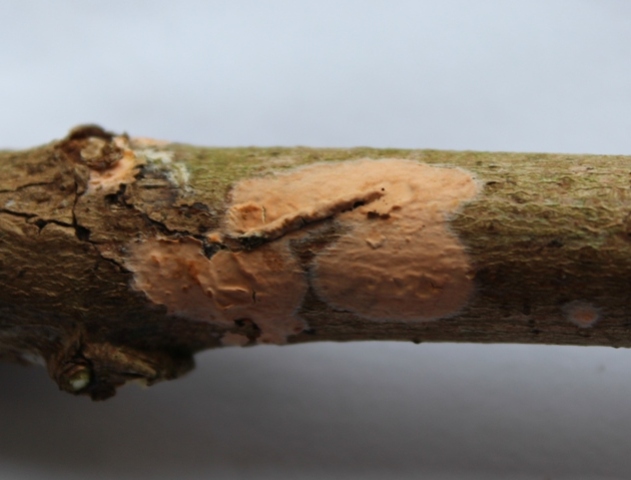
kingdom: Fungi
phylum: Basidiomycota
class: Agaricomycetes
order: Russulales
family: Peniophoraceae
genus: Peniophora
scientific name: Peniophora incarnata
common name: laksefarvet voksskind
